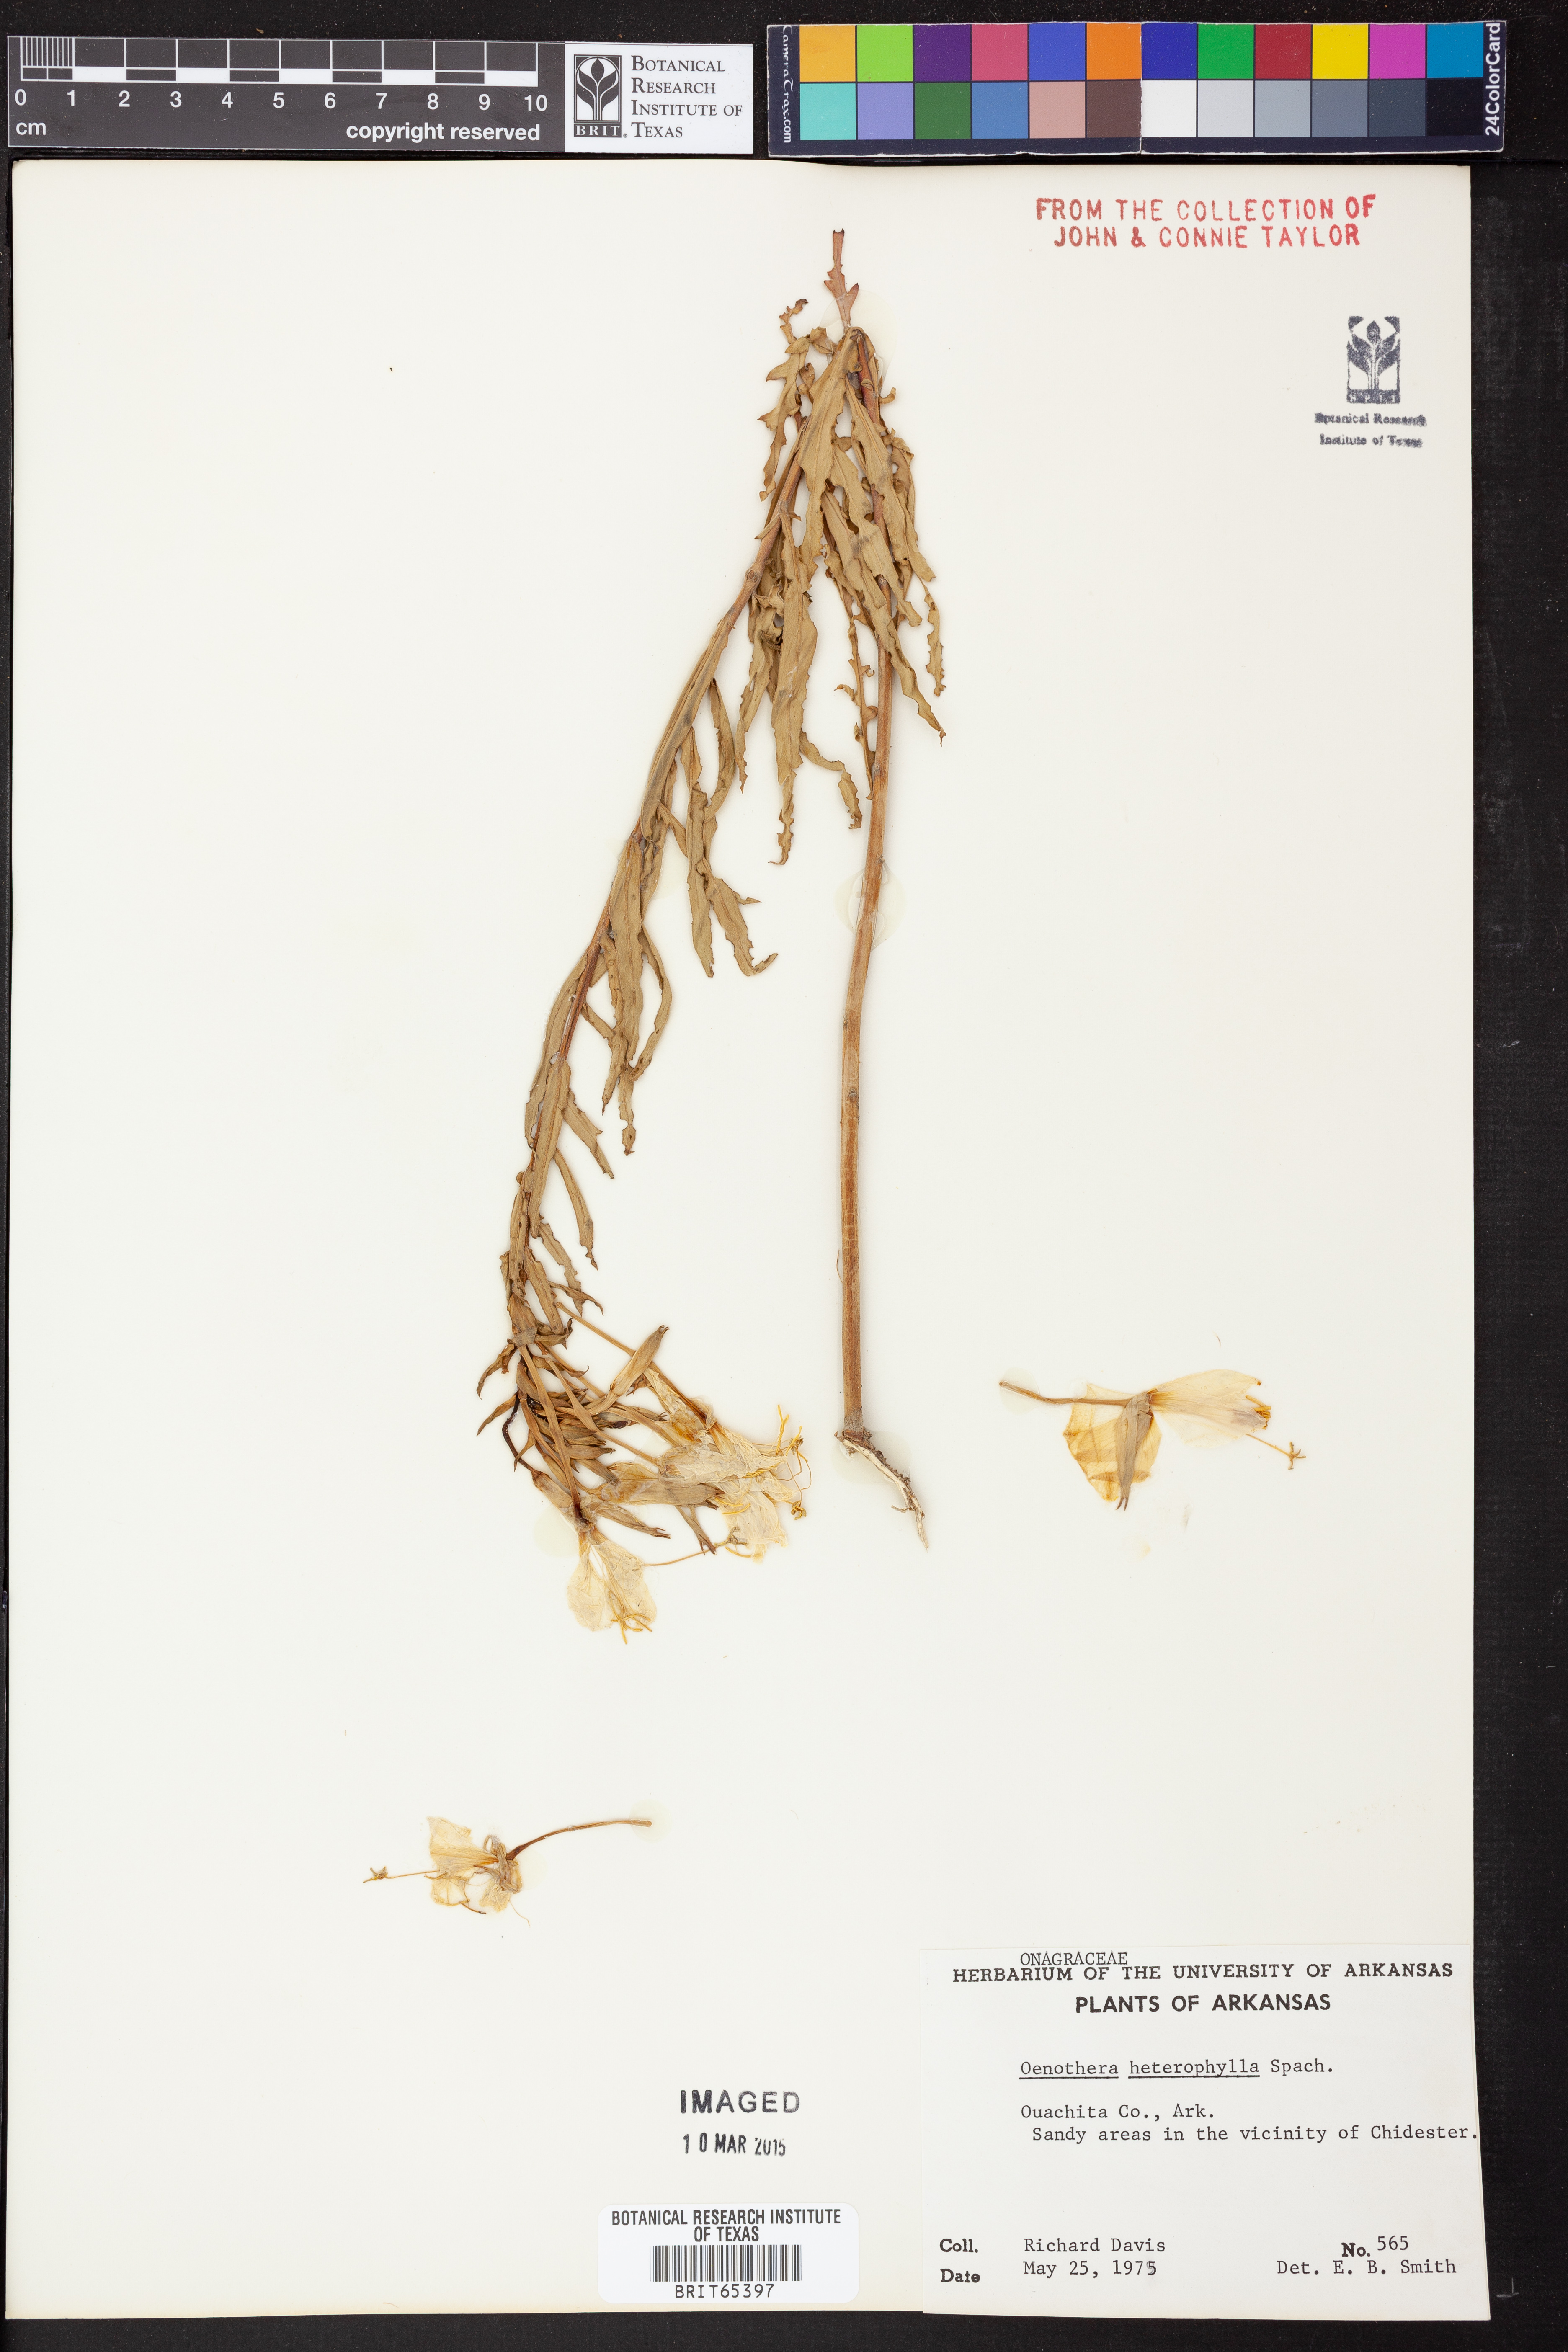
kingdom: Plantae
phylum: Tracheophyta
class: Magnoliopsida
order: Myrtales
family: Onagraceae
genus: Camissonia
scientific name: Camissonia dentata
